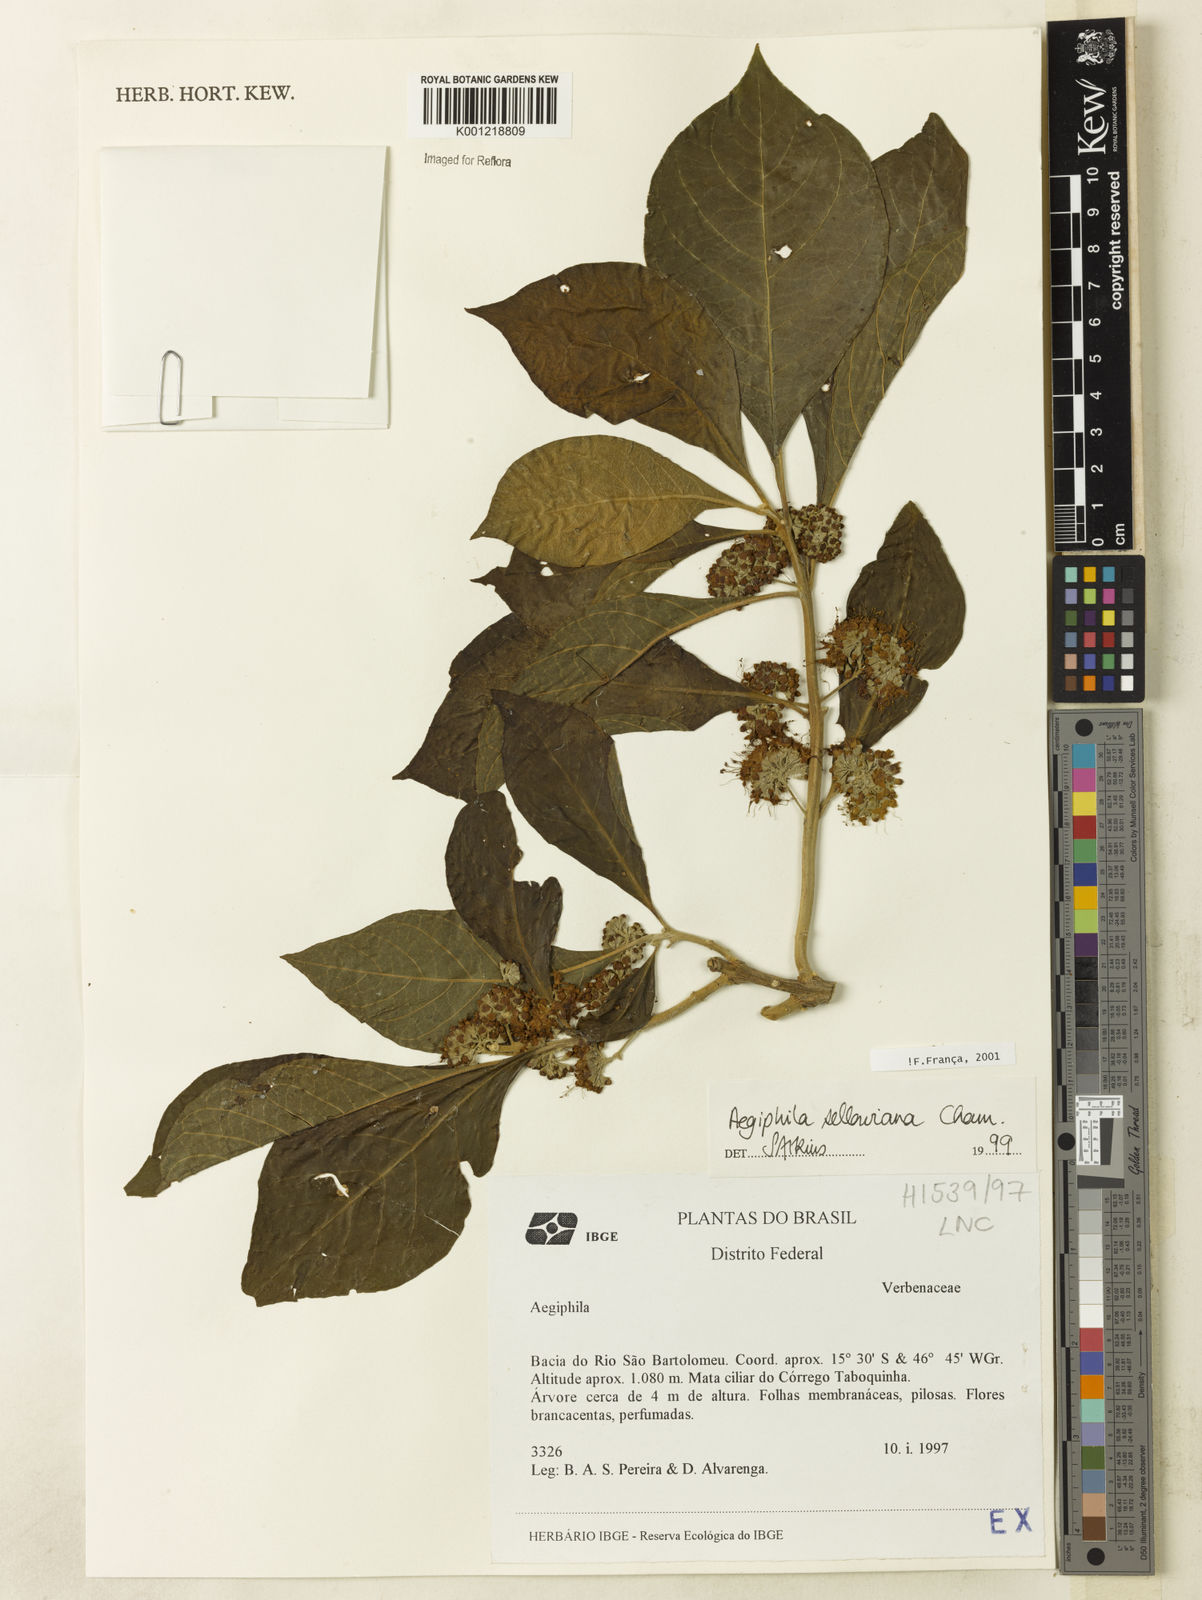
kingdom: Plantae
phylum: Tracheophyta
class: Magnoliopsida
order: Lamiales
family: Lamiaceae
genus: Aegiphila
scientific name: Aegiphila verticillata
